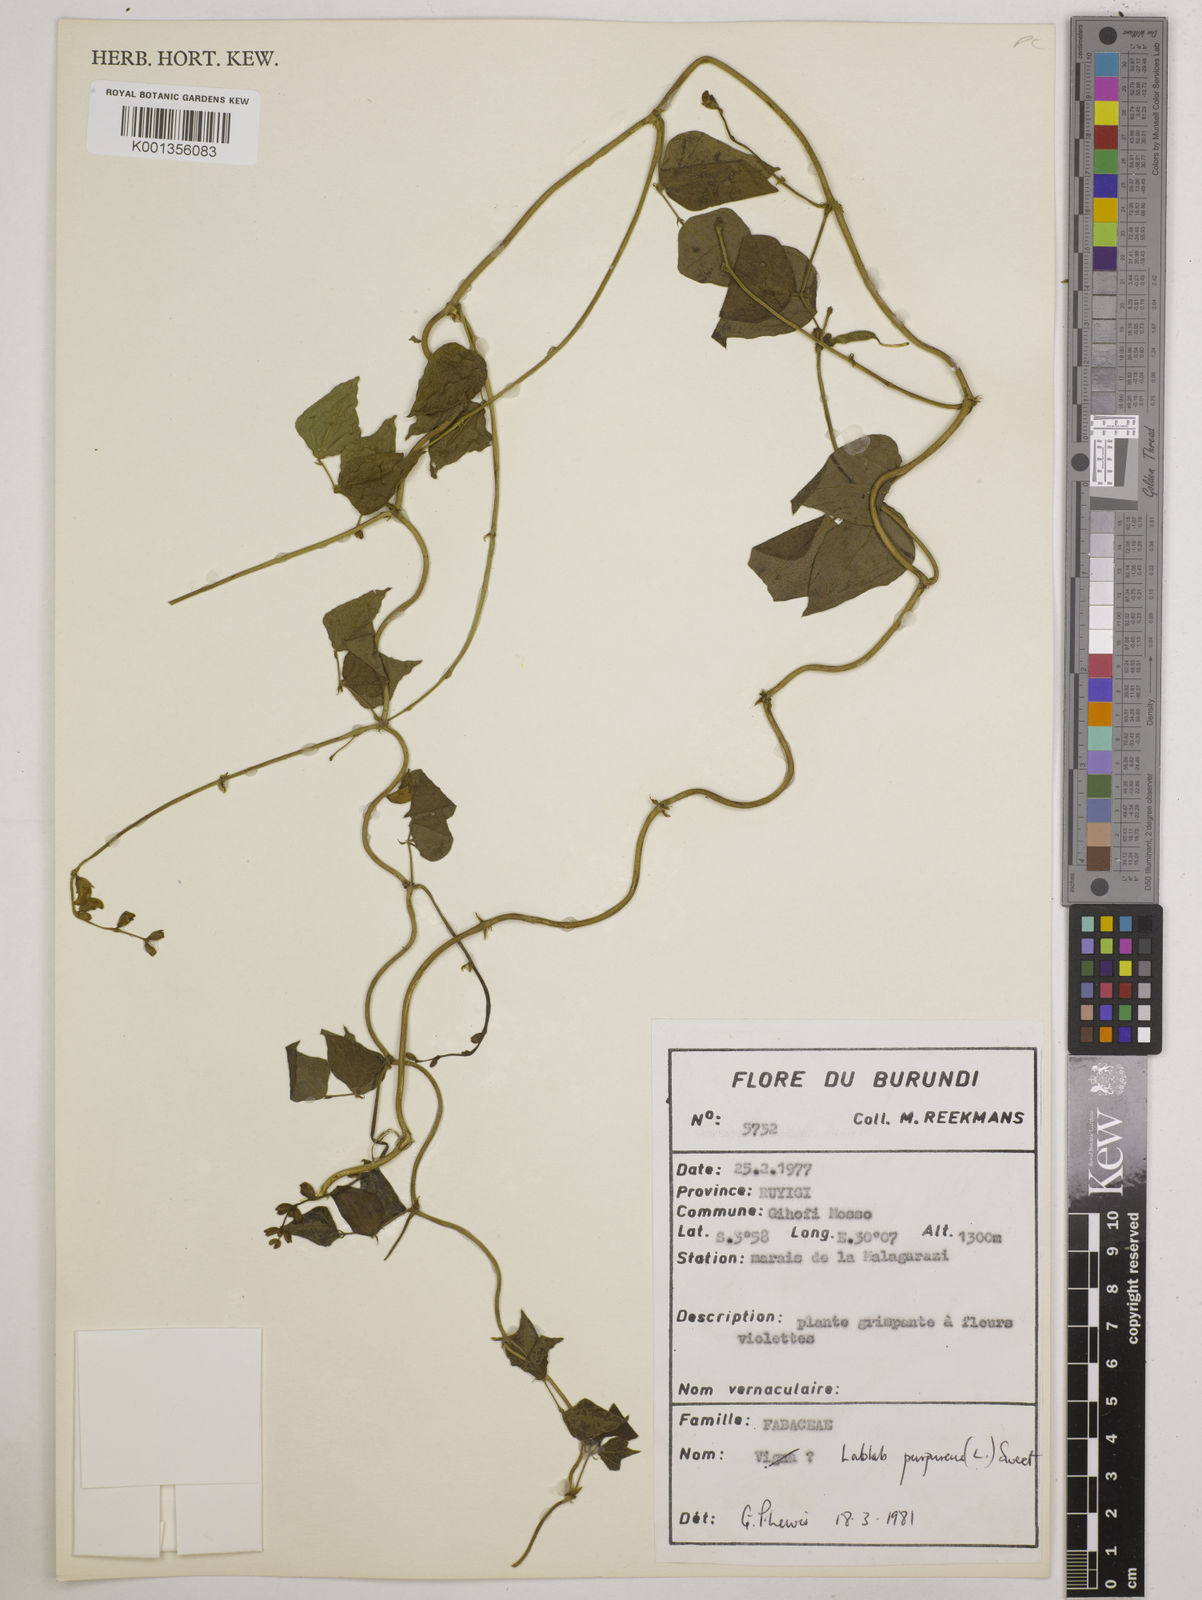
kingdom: Plantae
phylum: Tracheophyta
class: Magnoliopsida
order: Fabales
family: Fabaceae
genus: Lablab
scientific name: Lablab purpureus
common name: Lablab-bean
